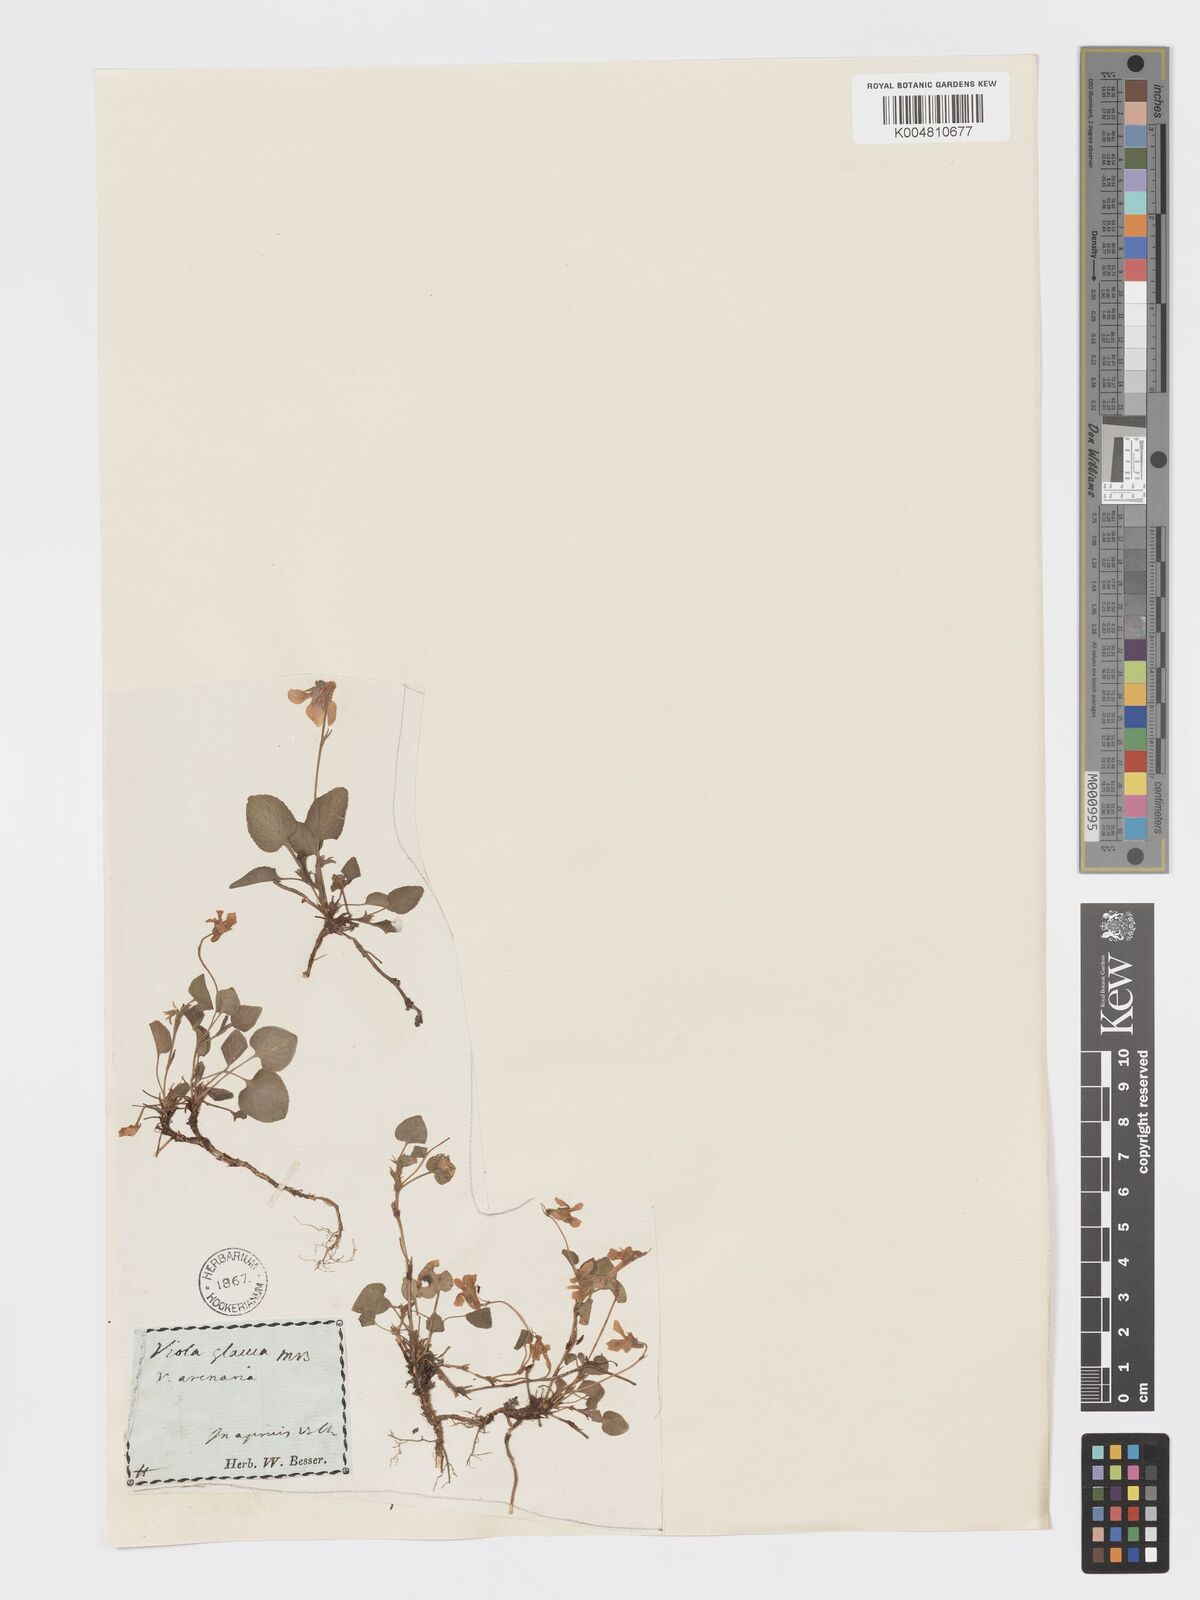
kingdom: Plantae
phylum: Tracheophyta
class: Magnoliopsida
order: Malpighiales
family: Violaceae
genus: Viola
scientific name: Viola rupestris
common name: Teesdale violet
